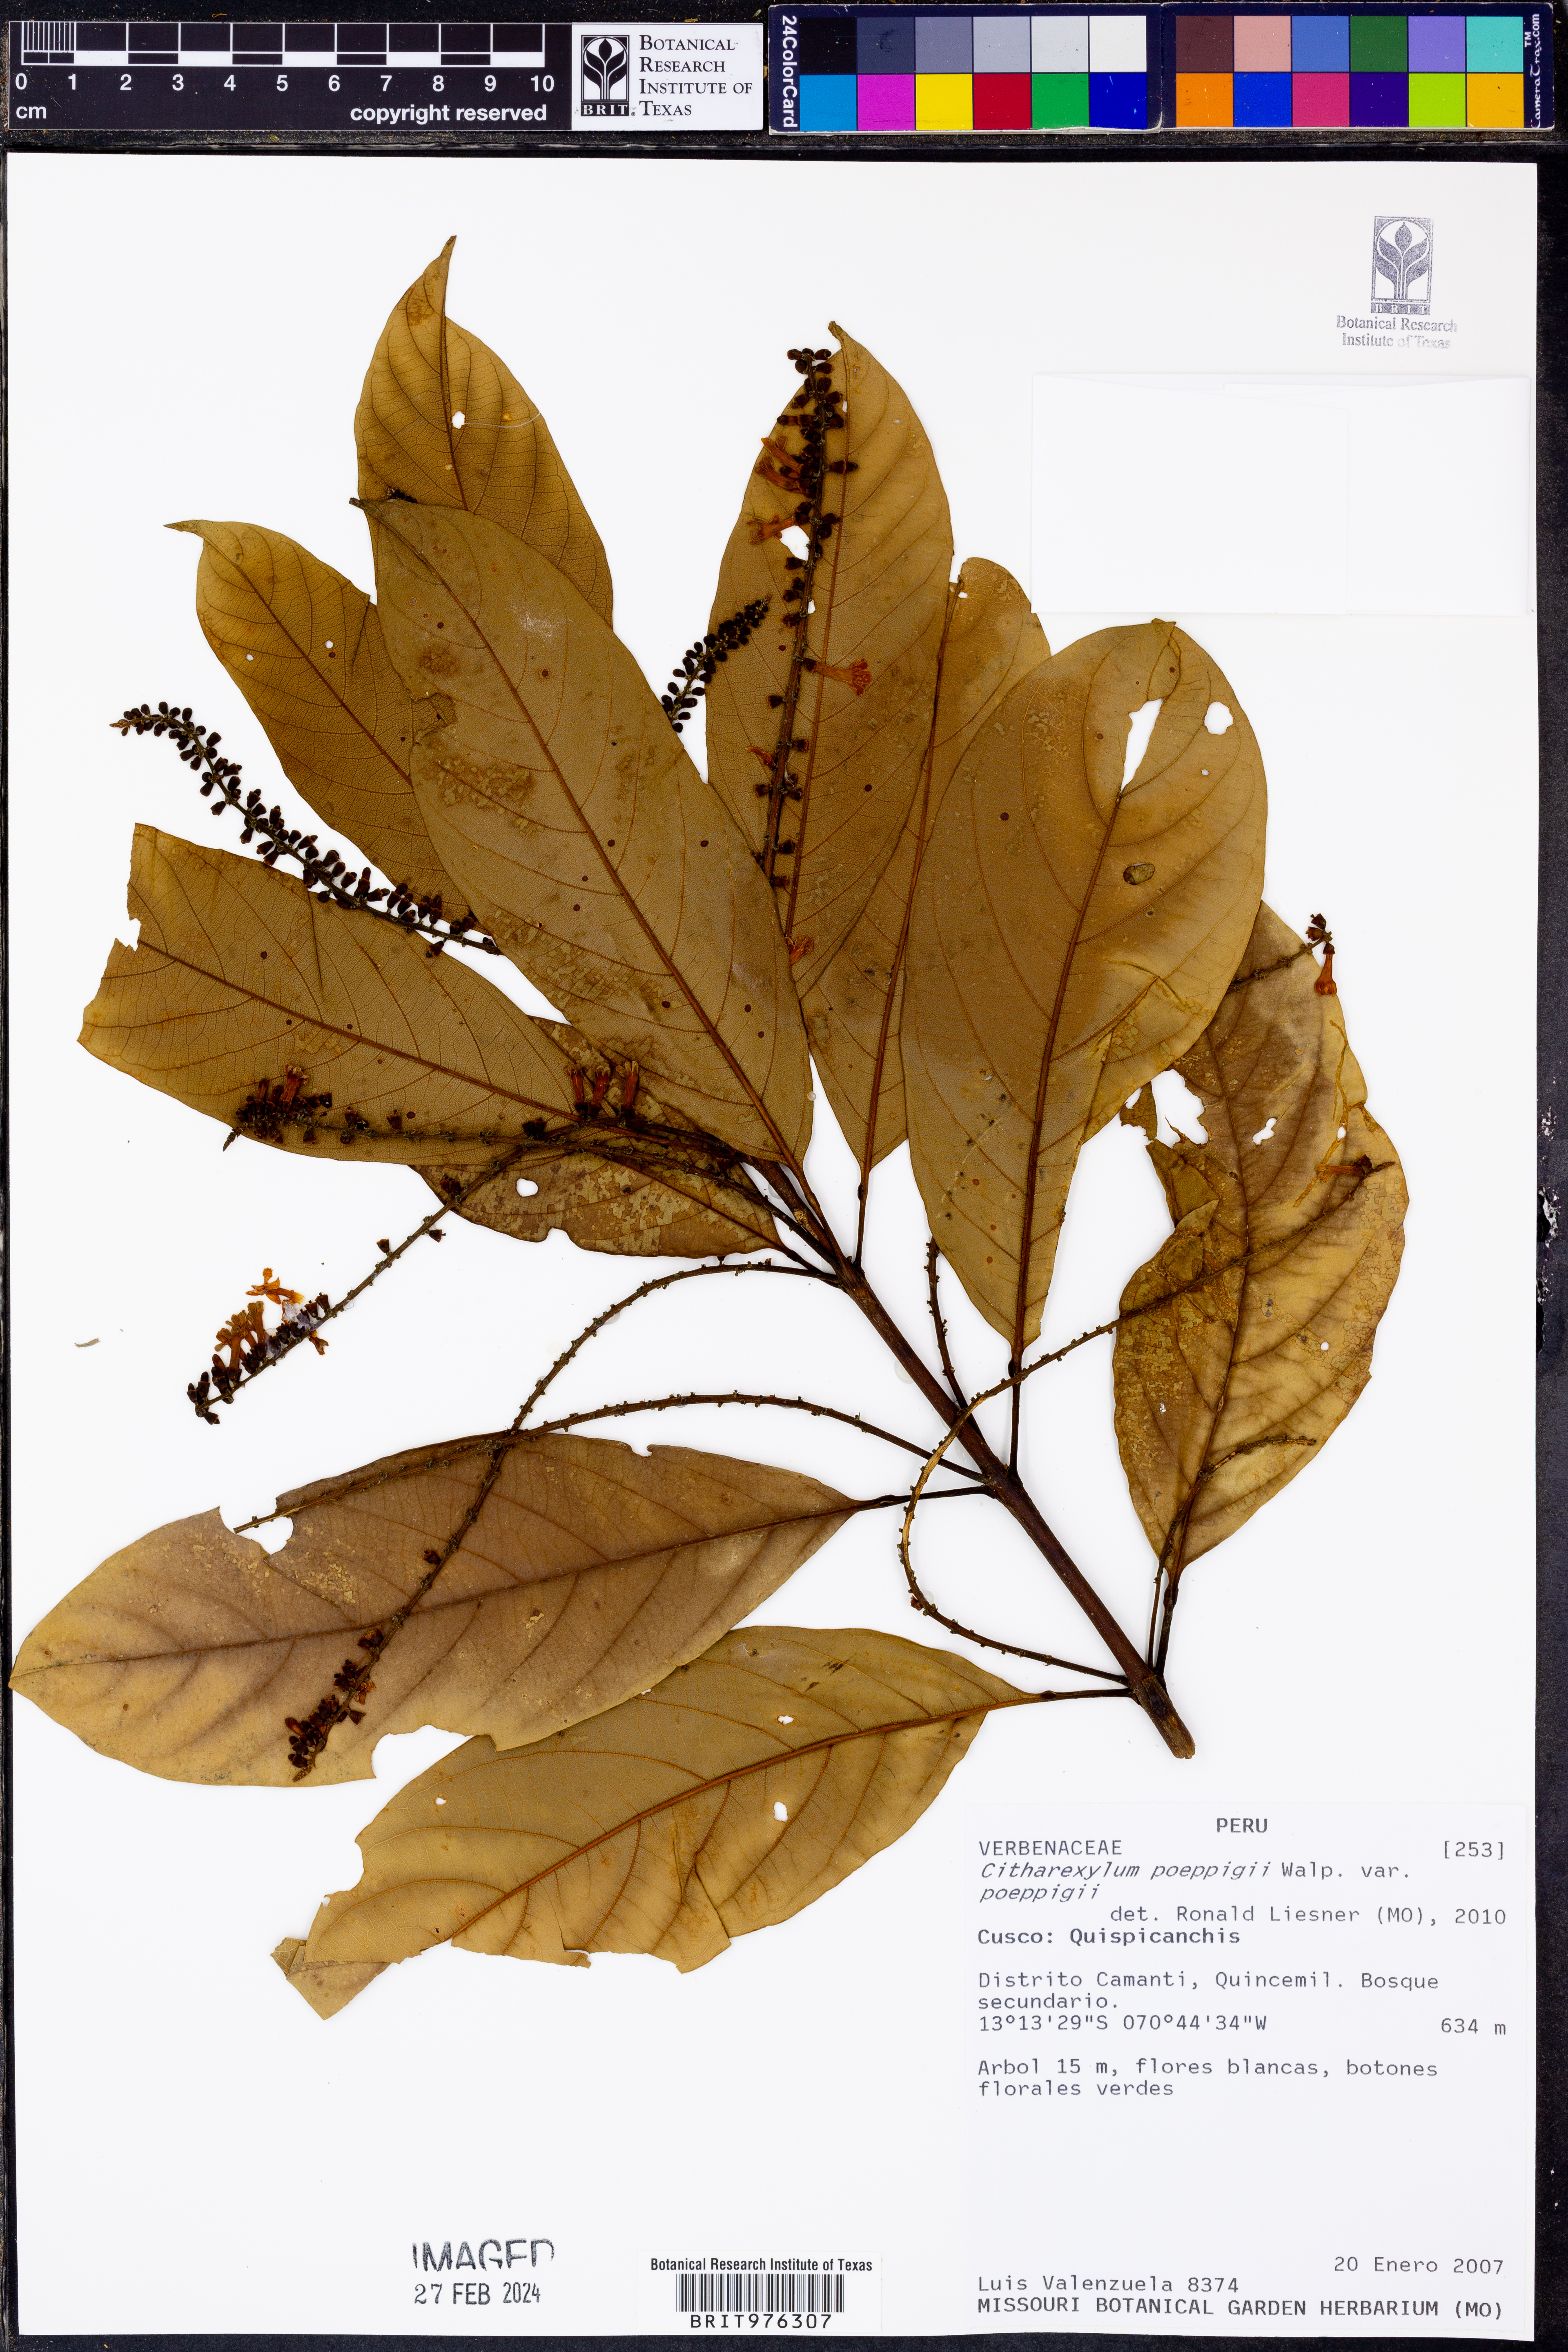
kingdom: Plantae
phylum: Tracheophyta
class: Magnoliopsida
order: Lamiales
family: Verbenaceae
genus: Citharexylum
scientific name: Citharexylum
